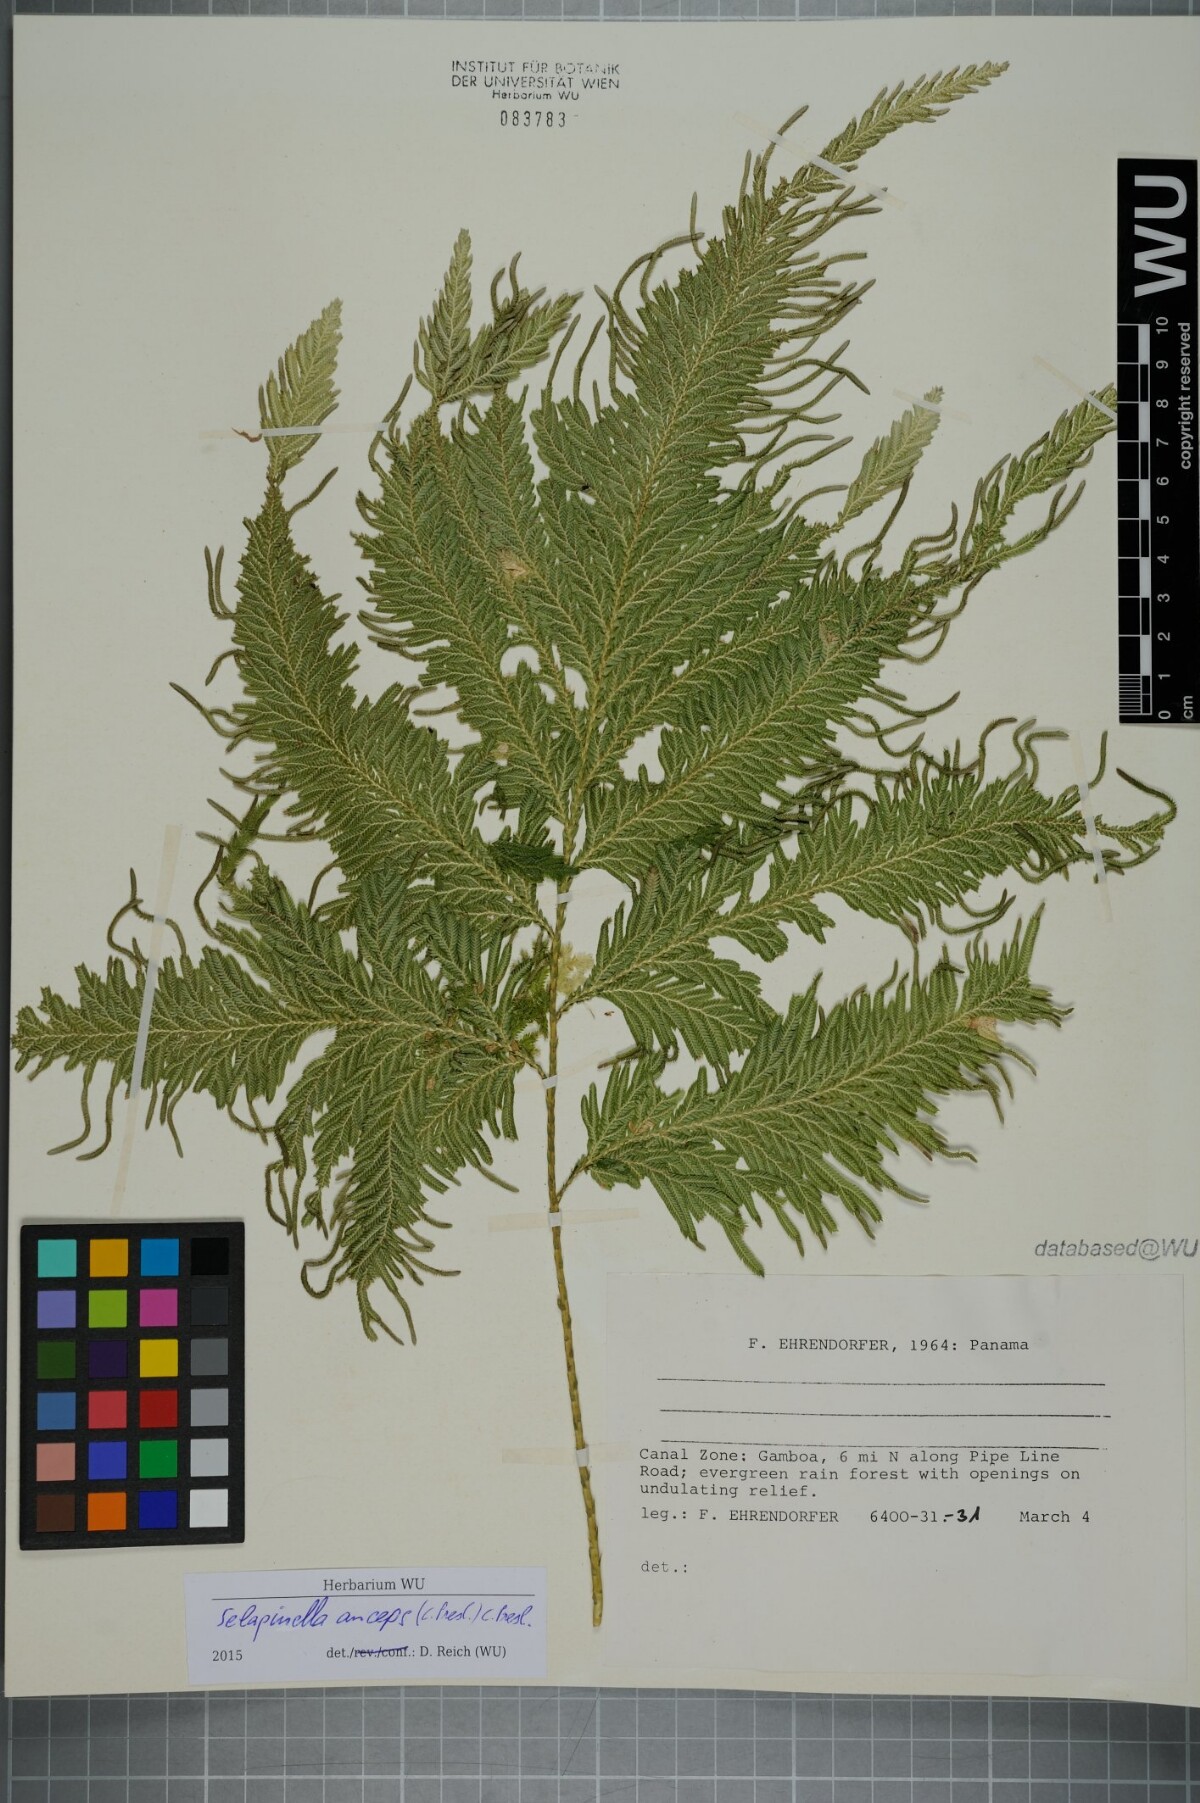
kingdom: Plantae
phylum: Tracheophyta
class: Lycopodiopsida
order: Selaginellales
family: Selaginellaceae
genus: Selaginella
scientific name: Selaginella anceps
